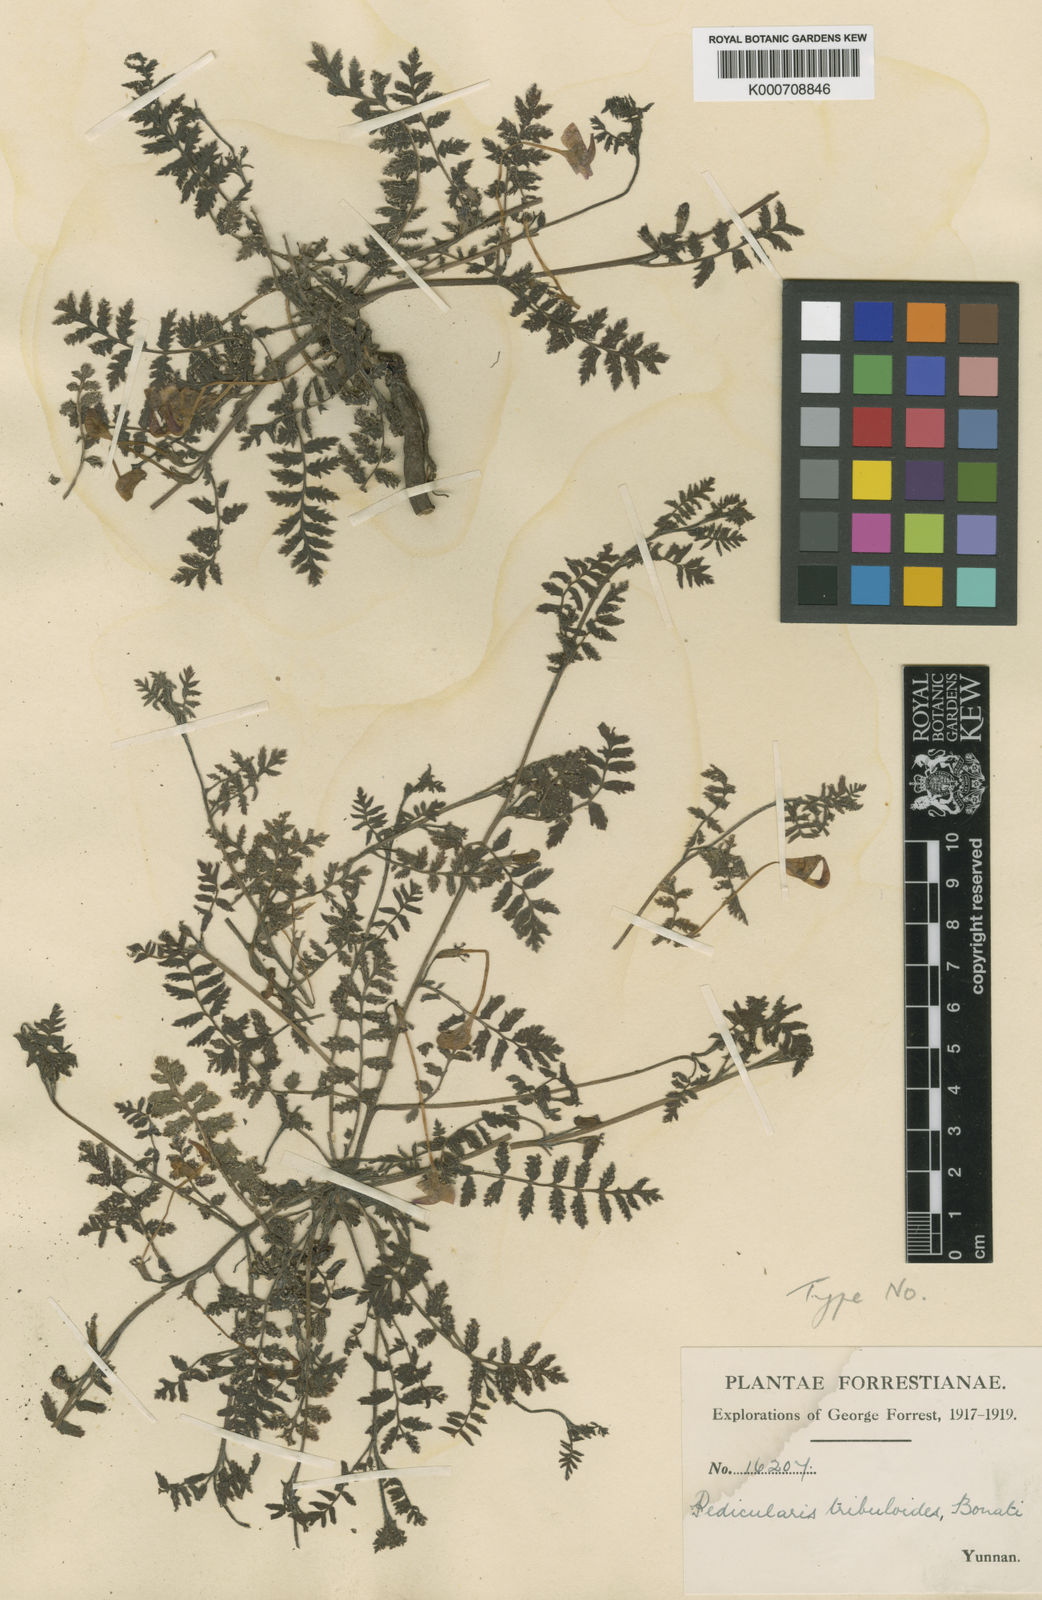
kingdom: Plantae
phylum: Tracheophyta
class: Magnoliopsida
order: Lamiales
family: Orobanchaceae
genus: Pedicularis
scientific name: Pedicularis macrosiphon
